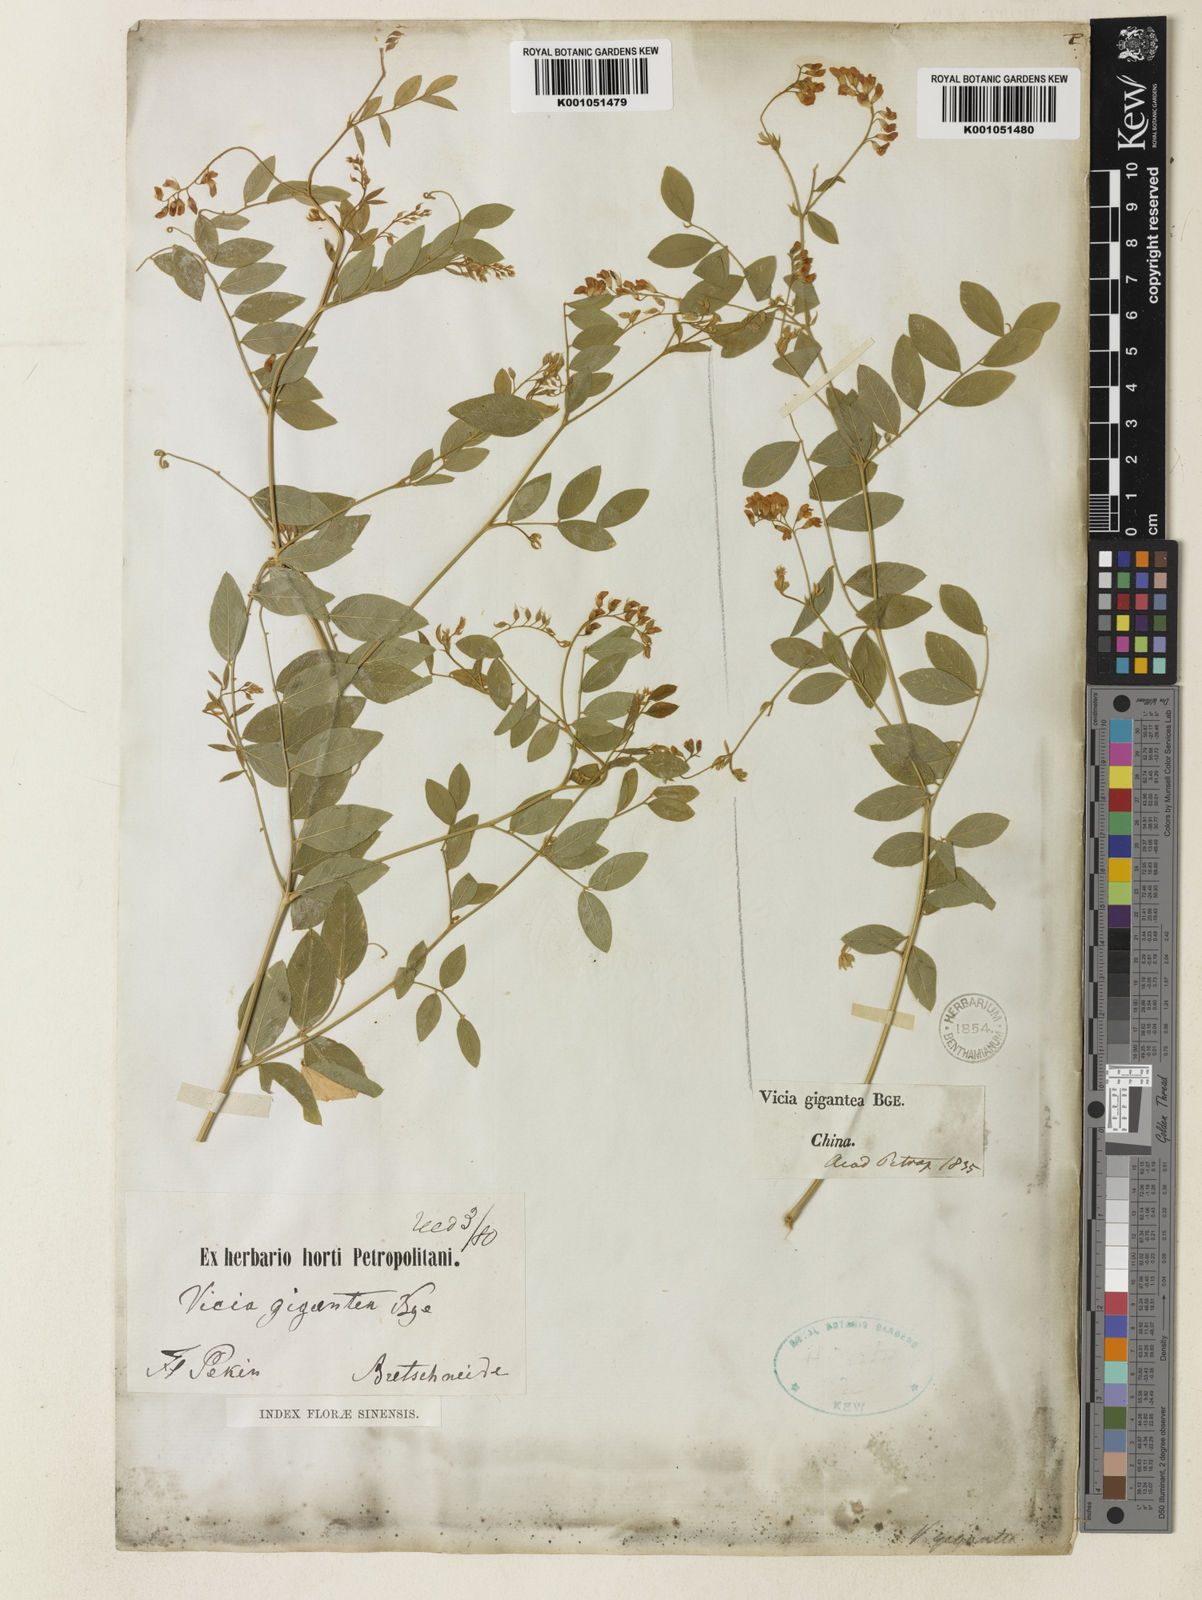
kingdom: Plantae
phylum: Tracheophyta
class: Magnoliopsida
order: Fabales
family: Fabaceae
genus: Vicia
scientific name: Vicia ramosissima
